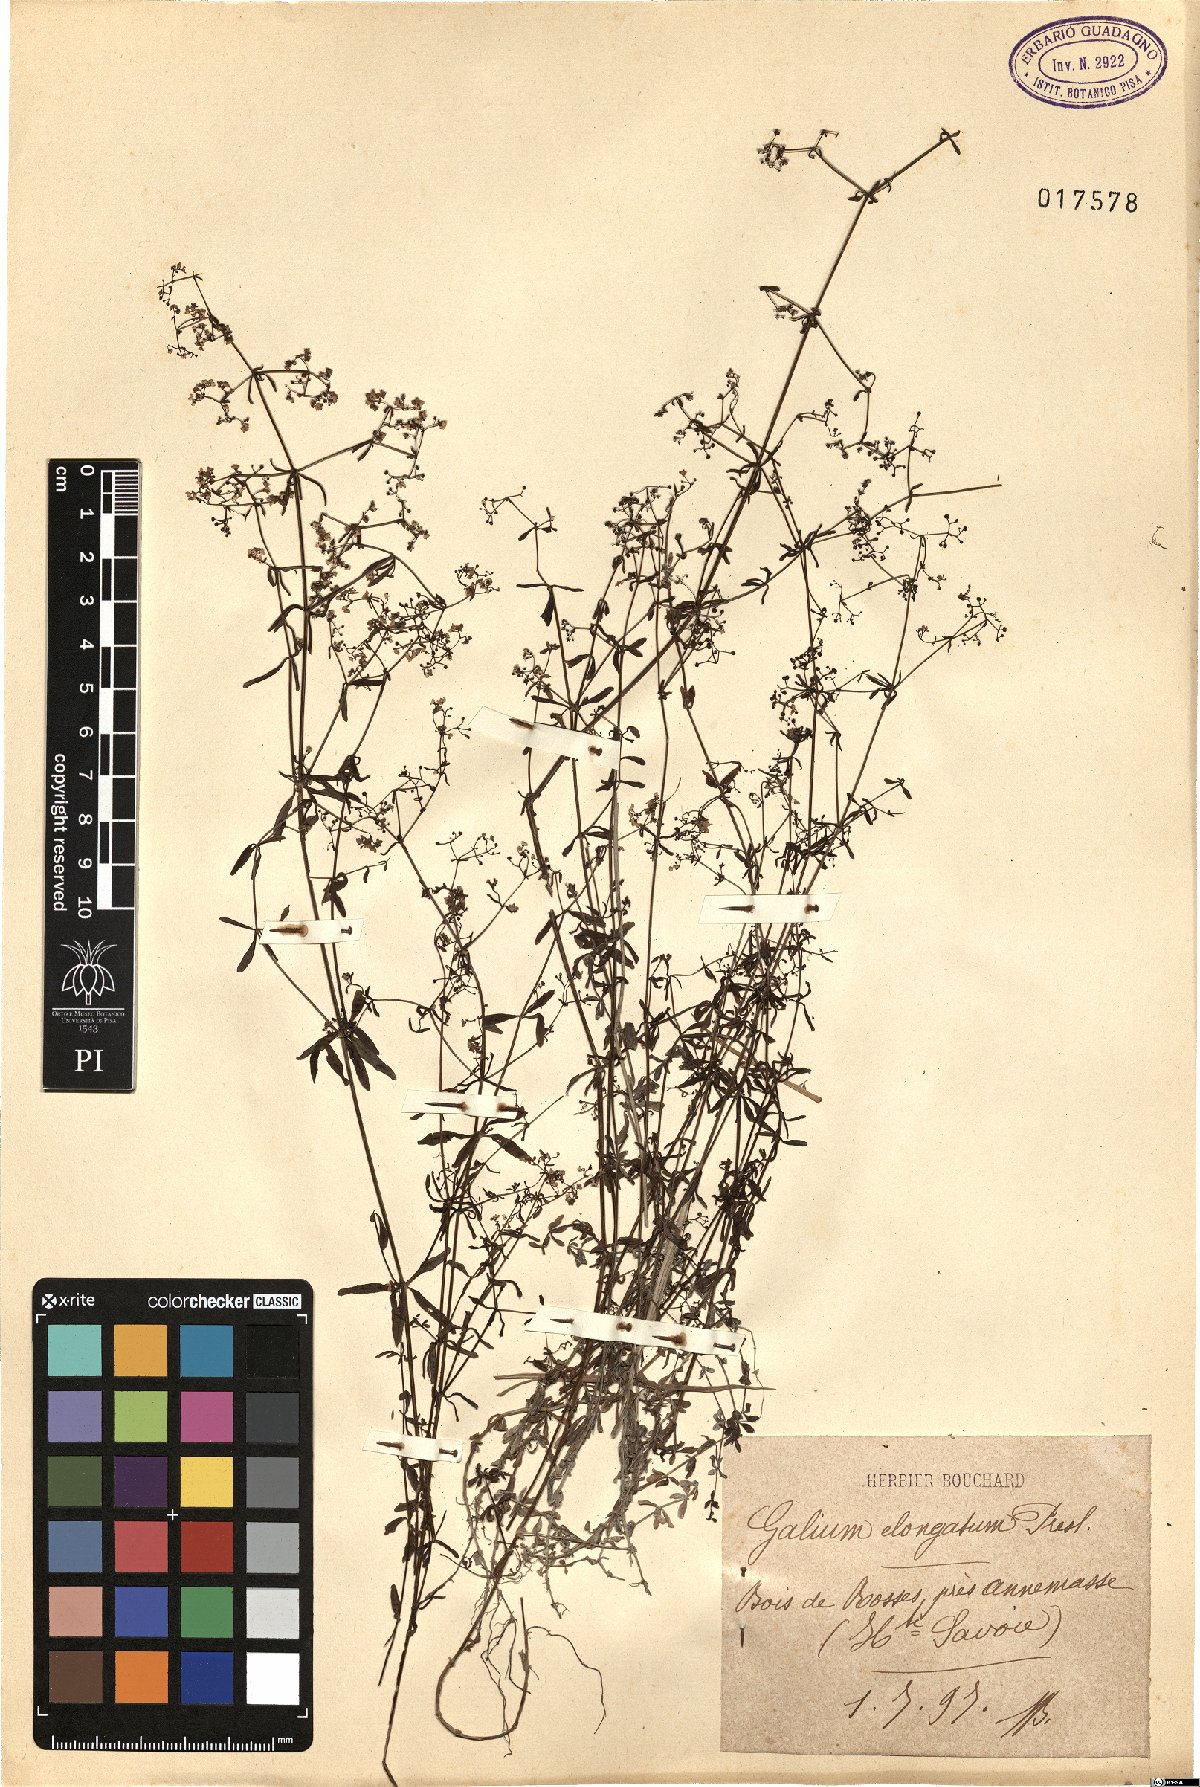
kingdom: Plantae
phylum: Tracheophyta
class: Magnoliopsida
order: Gentianales
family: Rubiaceae
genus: Galium
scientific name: Galium elongatum
